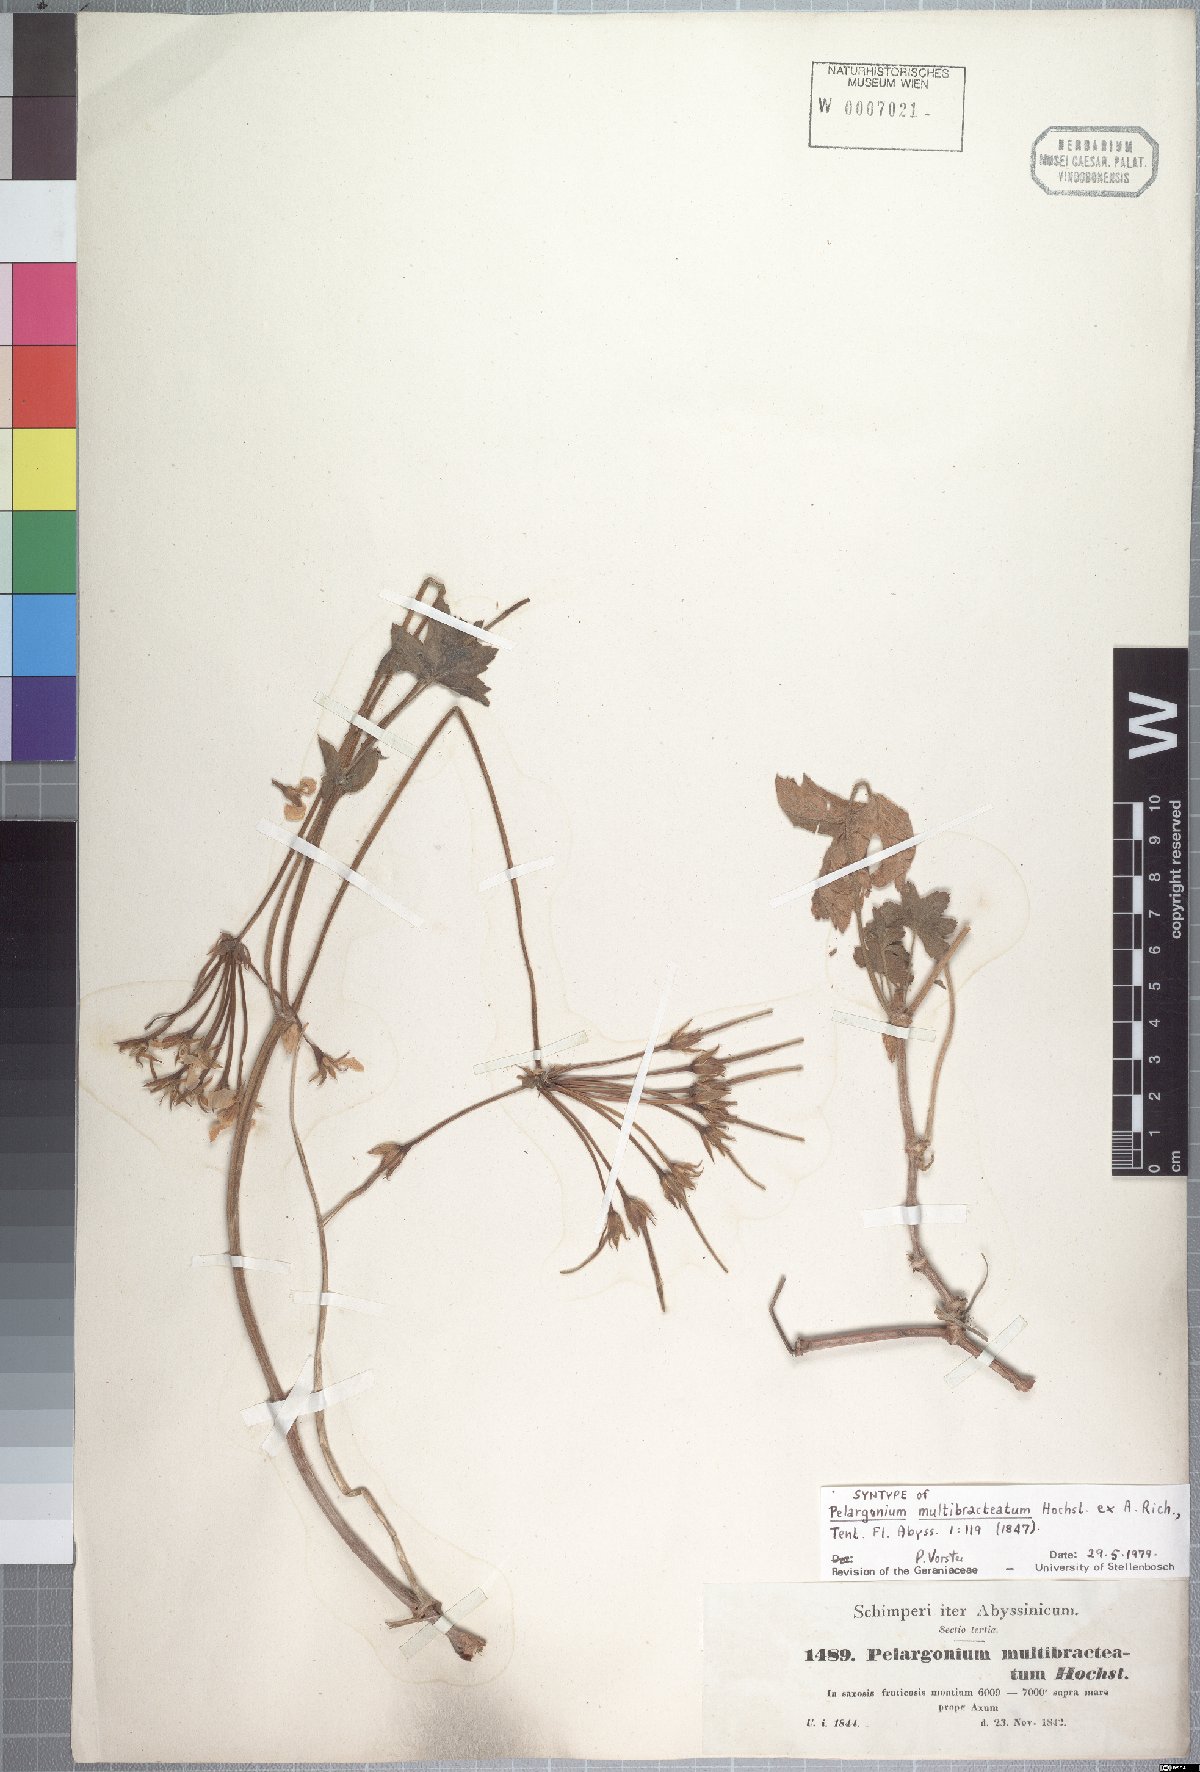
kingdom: Plantae
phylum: Tracheophyta
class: Magnoliopsida
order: Geraniales
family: Geraniaceae
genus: Pelargonium
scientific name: Pelargonium multibracteatum
